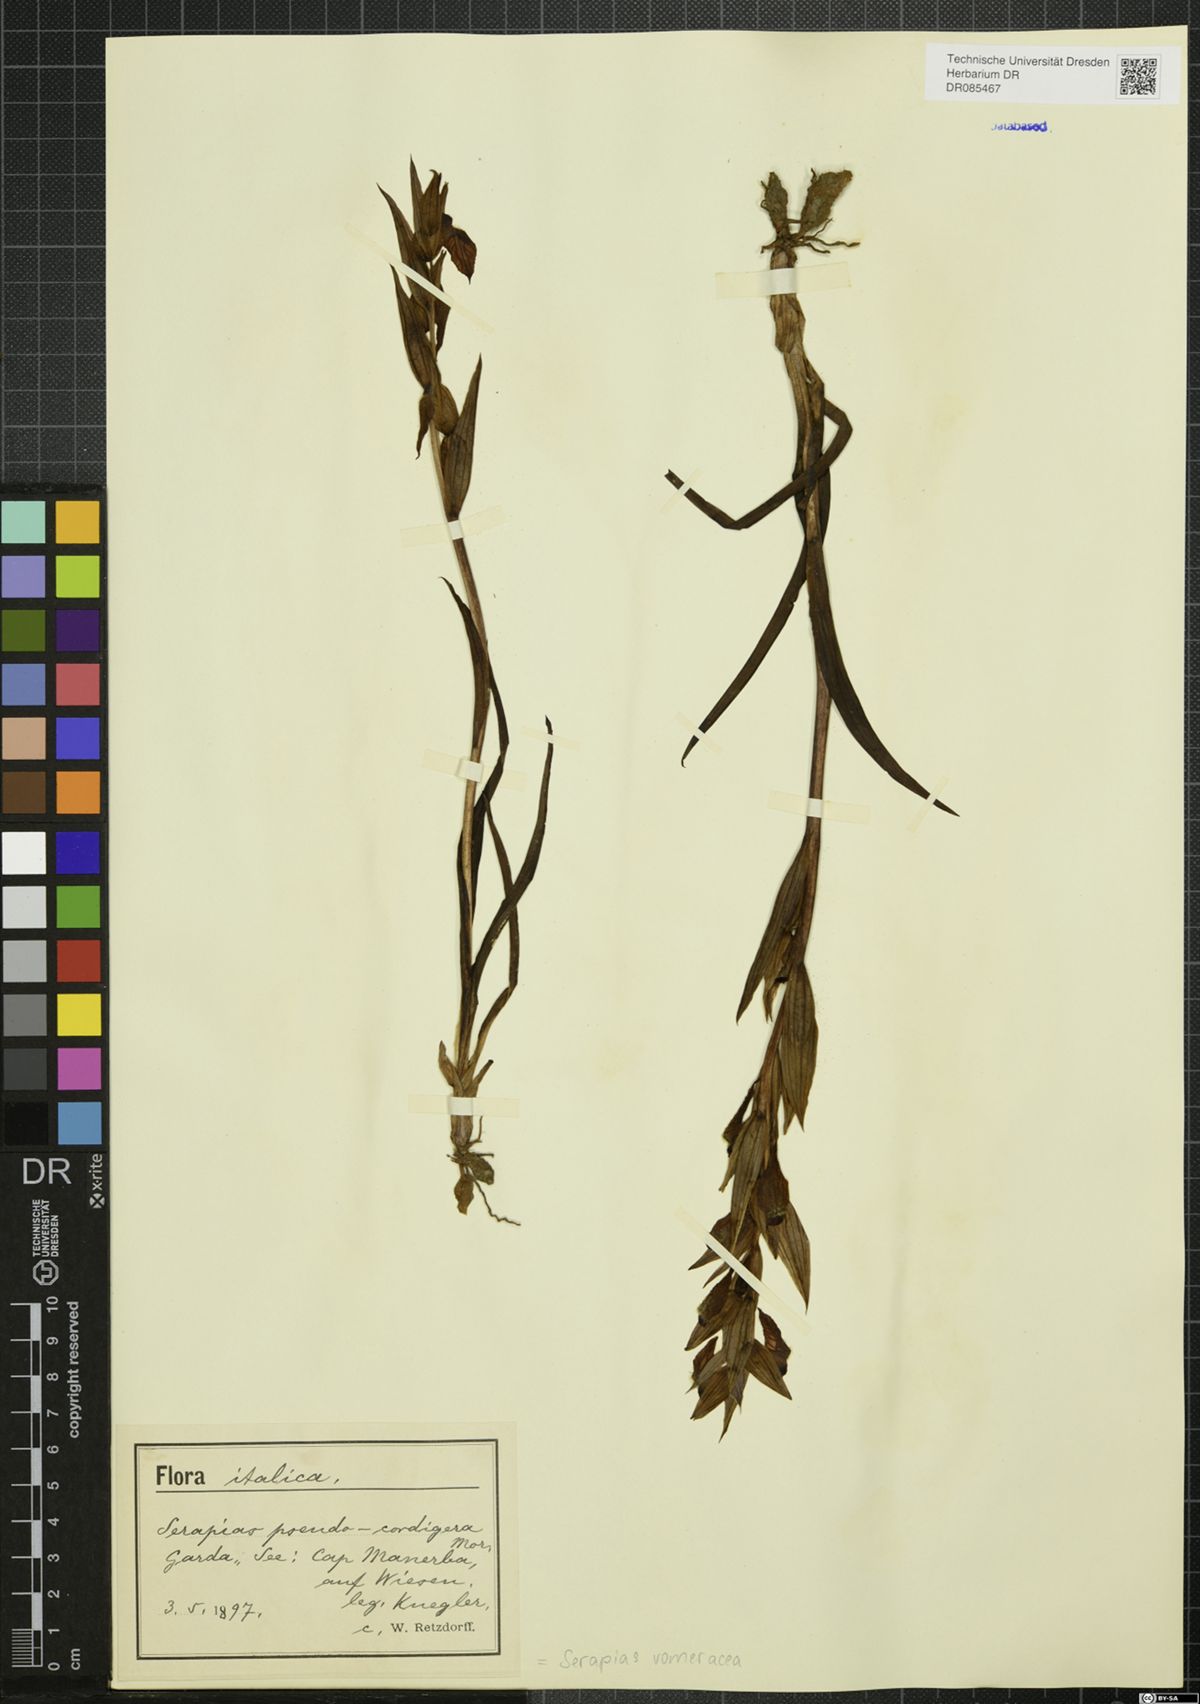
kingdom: Plantae
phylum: Tracheophyta
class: Liliopsida
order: Asparagales
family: Orchidaceae
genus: Serapias
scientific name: Serapias vomeracea
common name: Long-lipped tongue-orchid
